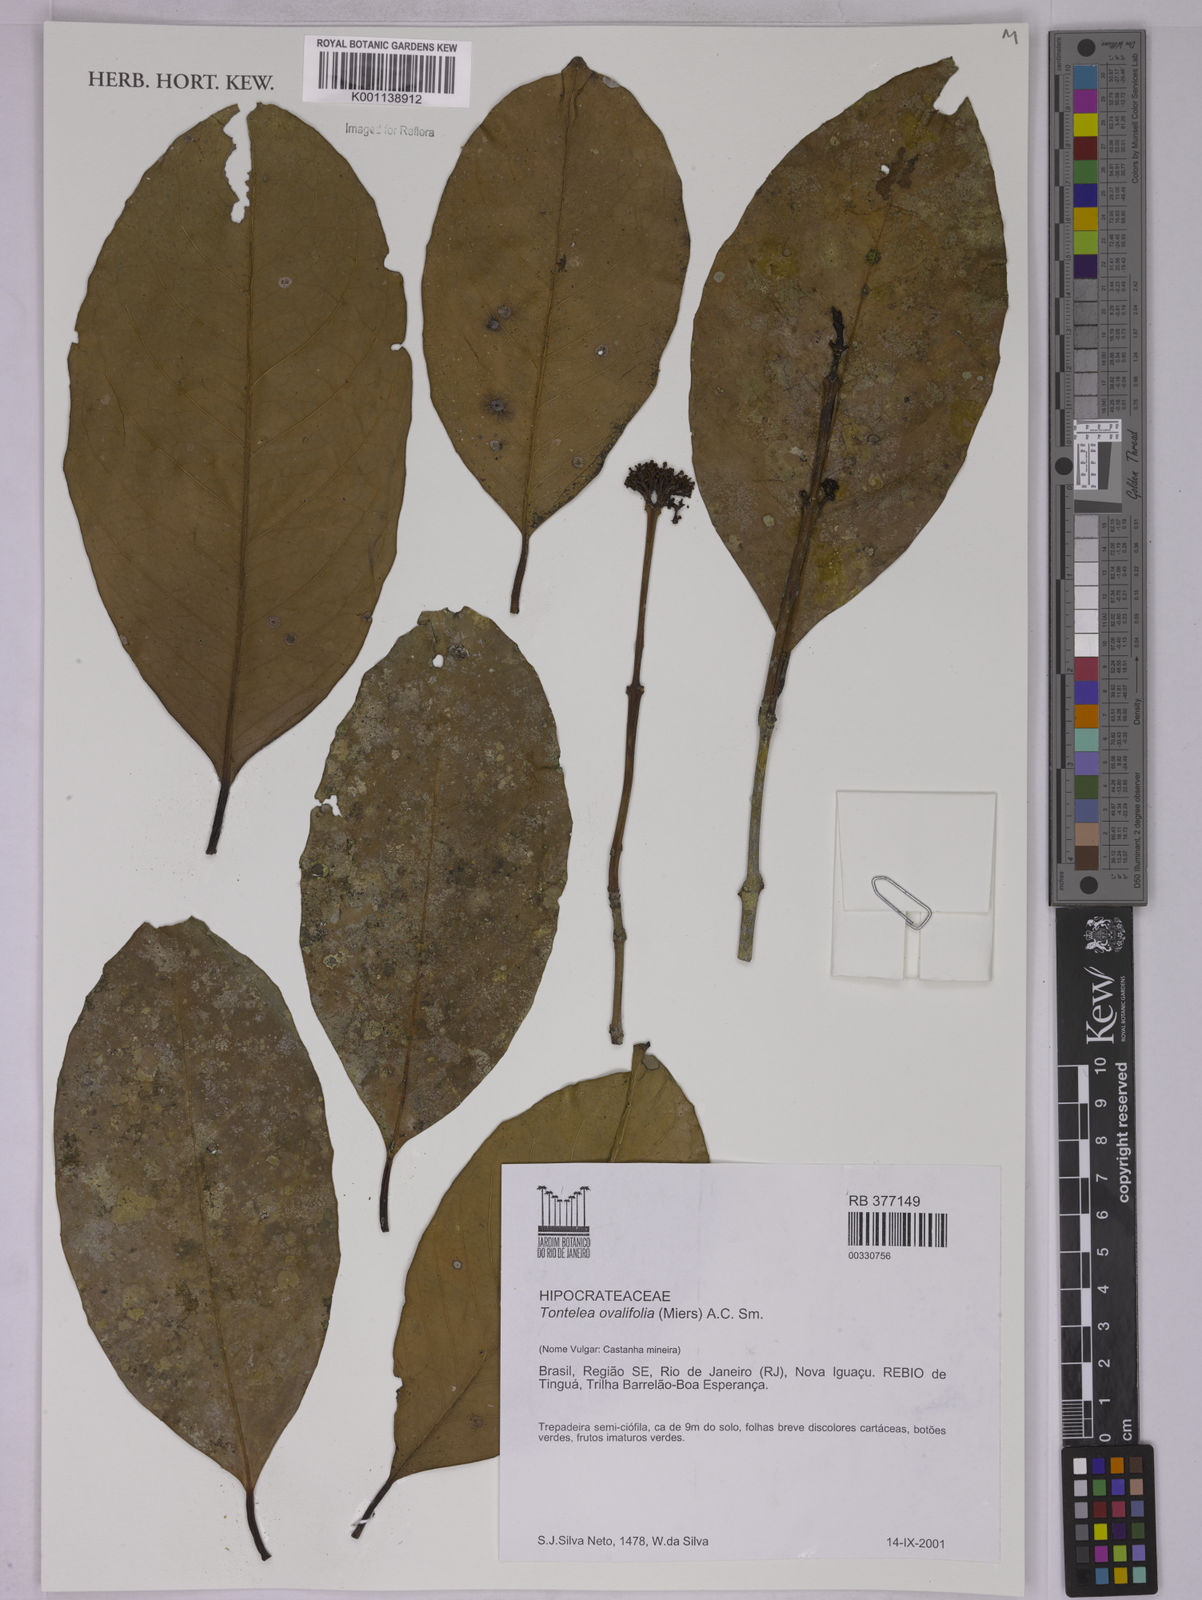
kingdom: Plantae
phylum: Tracheophyta
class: Magnoliopsida
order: Celastrales
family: Celastraceae
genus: Tontelea
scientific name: Tontelea passiflora
